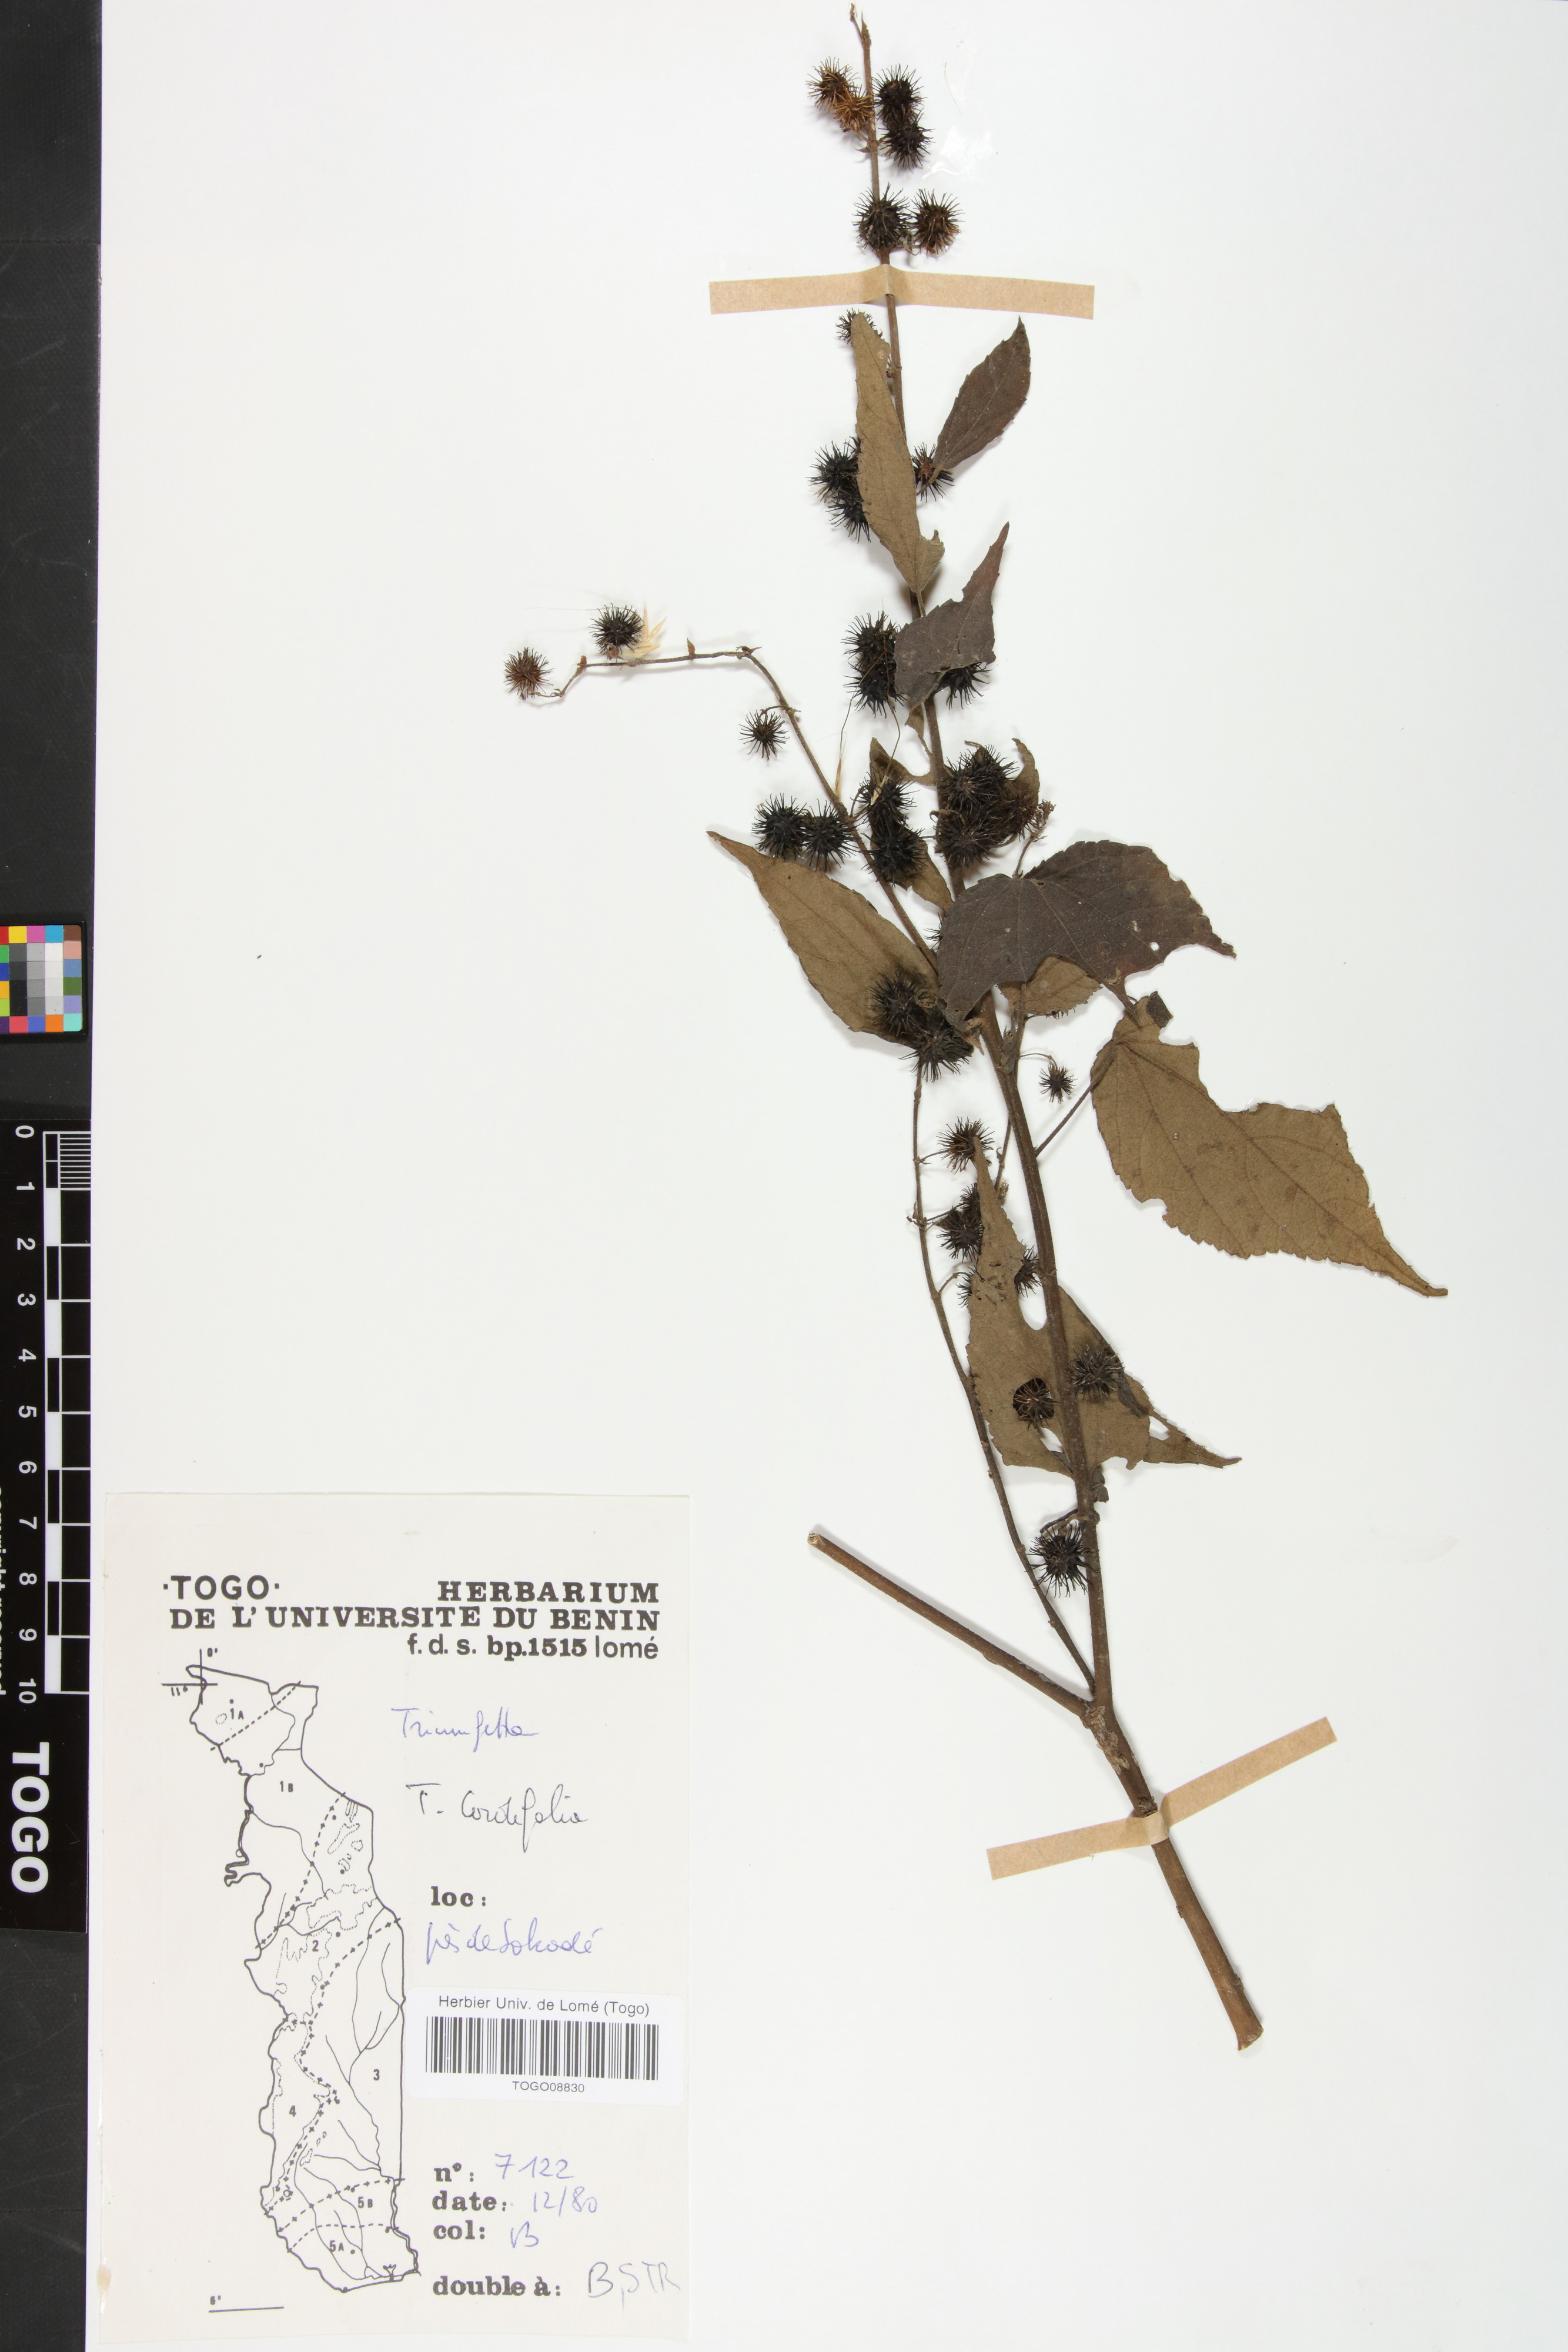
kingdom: Plantae
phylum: Tracheophyta
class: Magnoliopsida
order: Malvales
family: Malvaceae
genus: Triumfetta
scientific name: Triumfetta cordifolia
